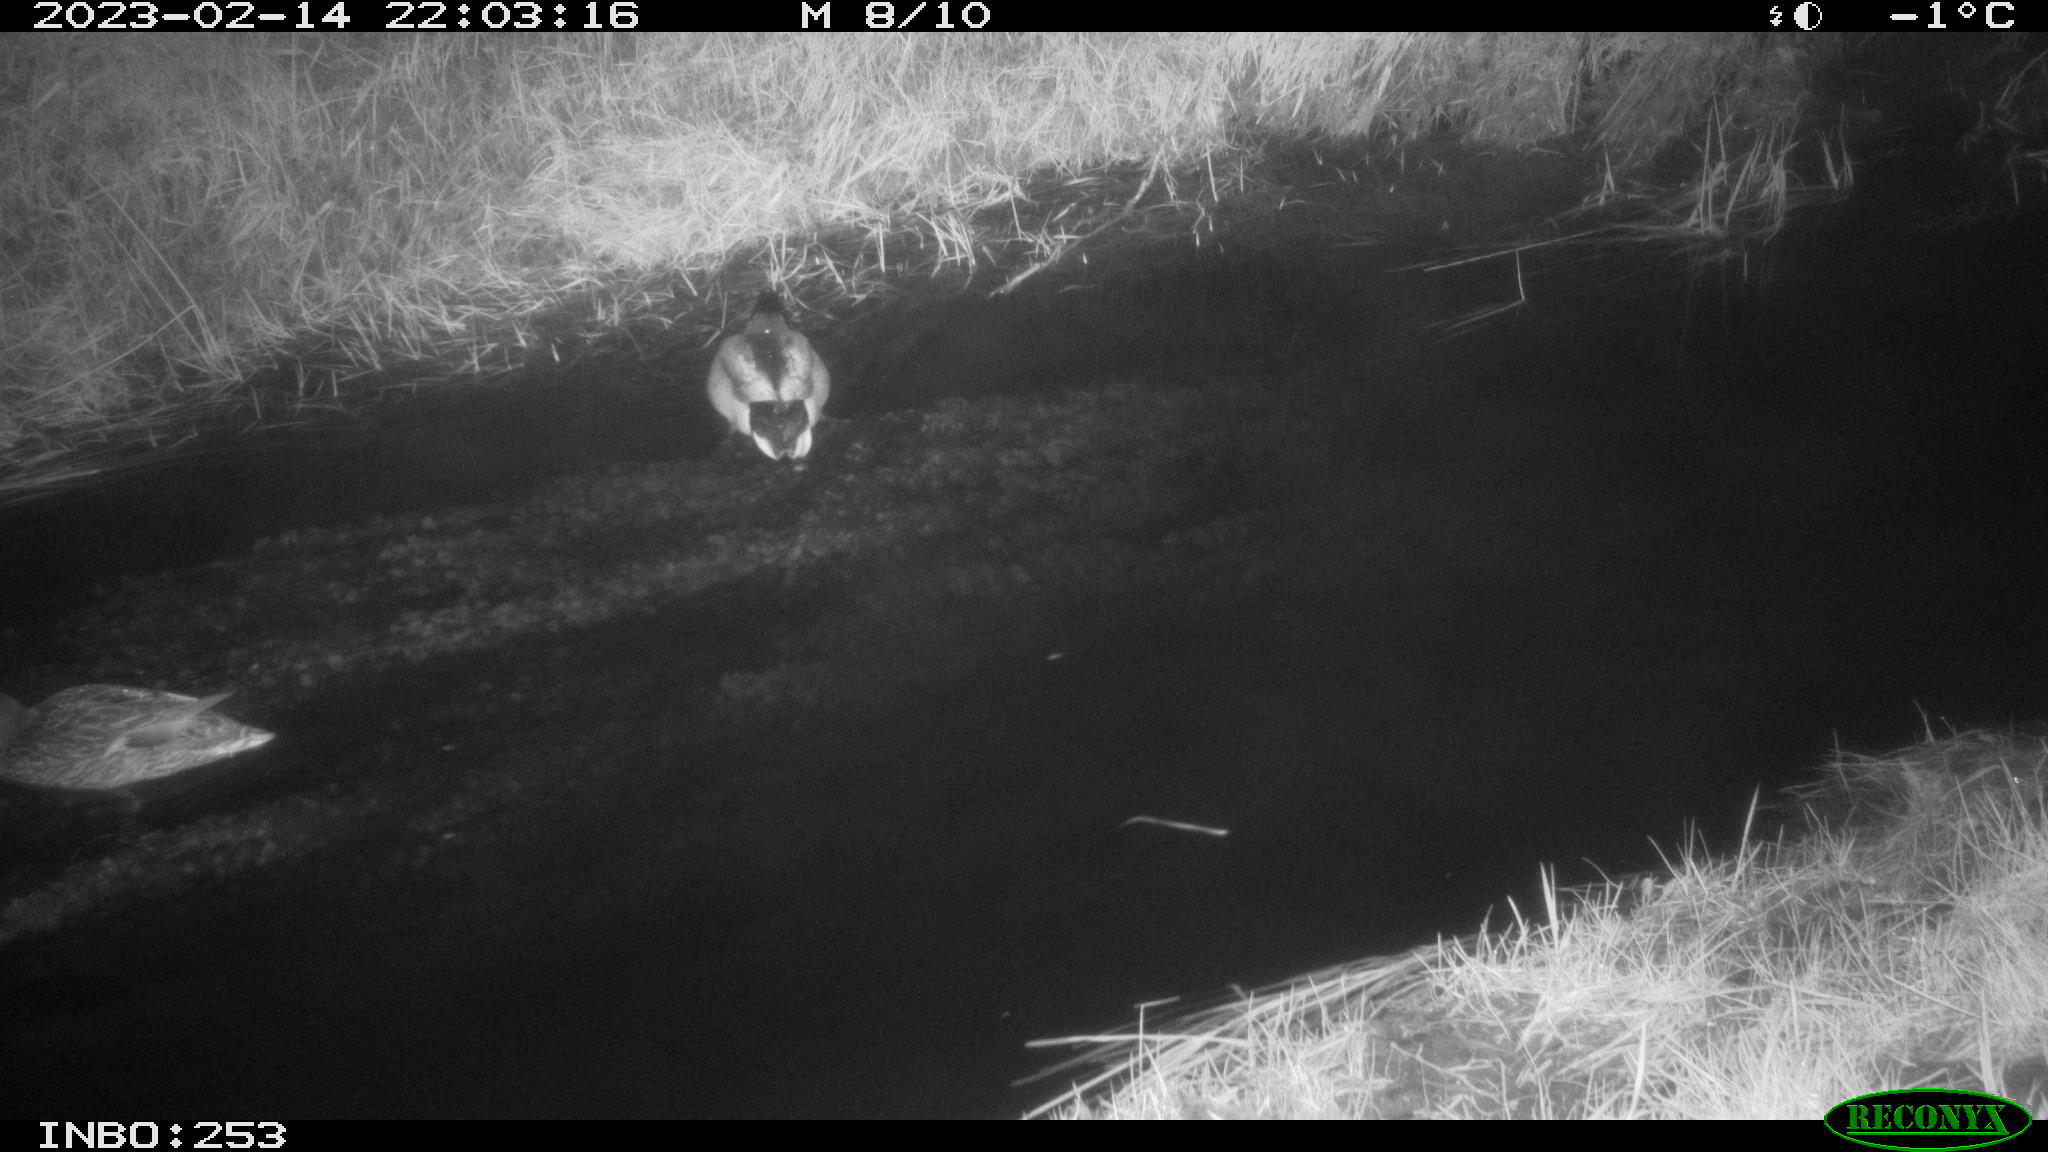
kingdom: Animalia
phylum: Chordata
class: Aves
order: Anseriformes
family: Anatidae
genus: Anas
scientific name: Anas
